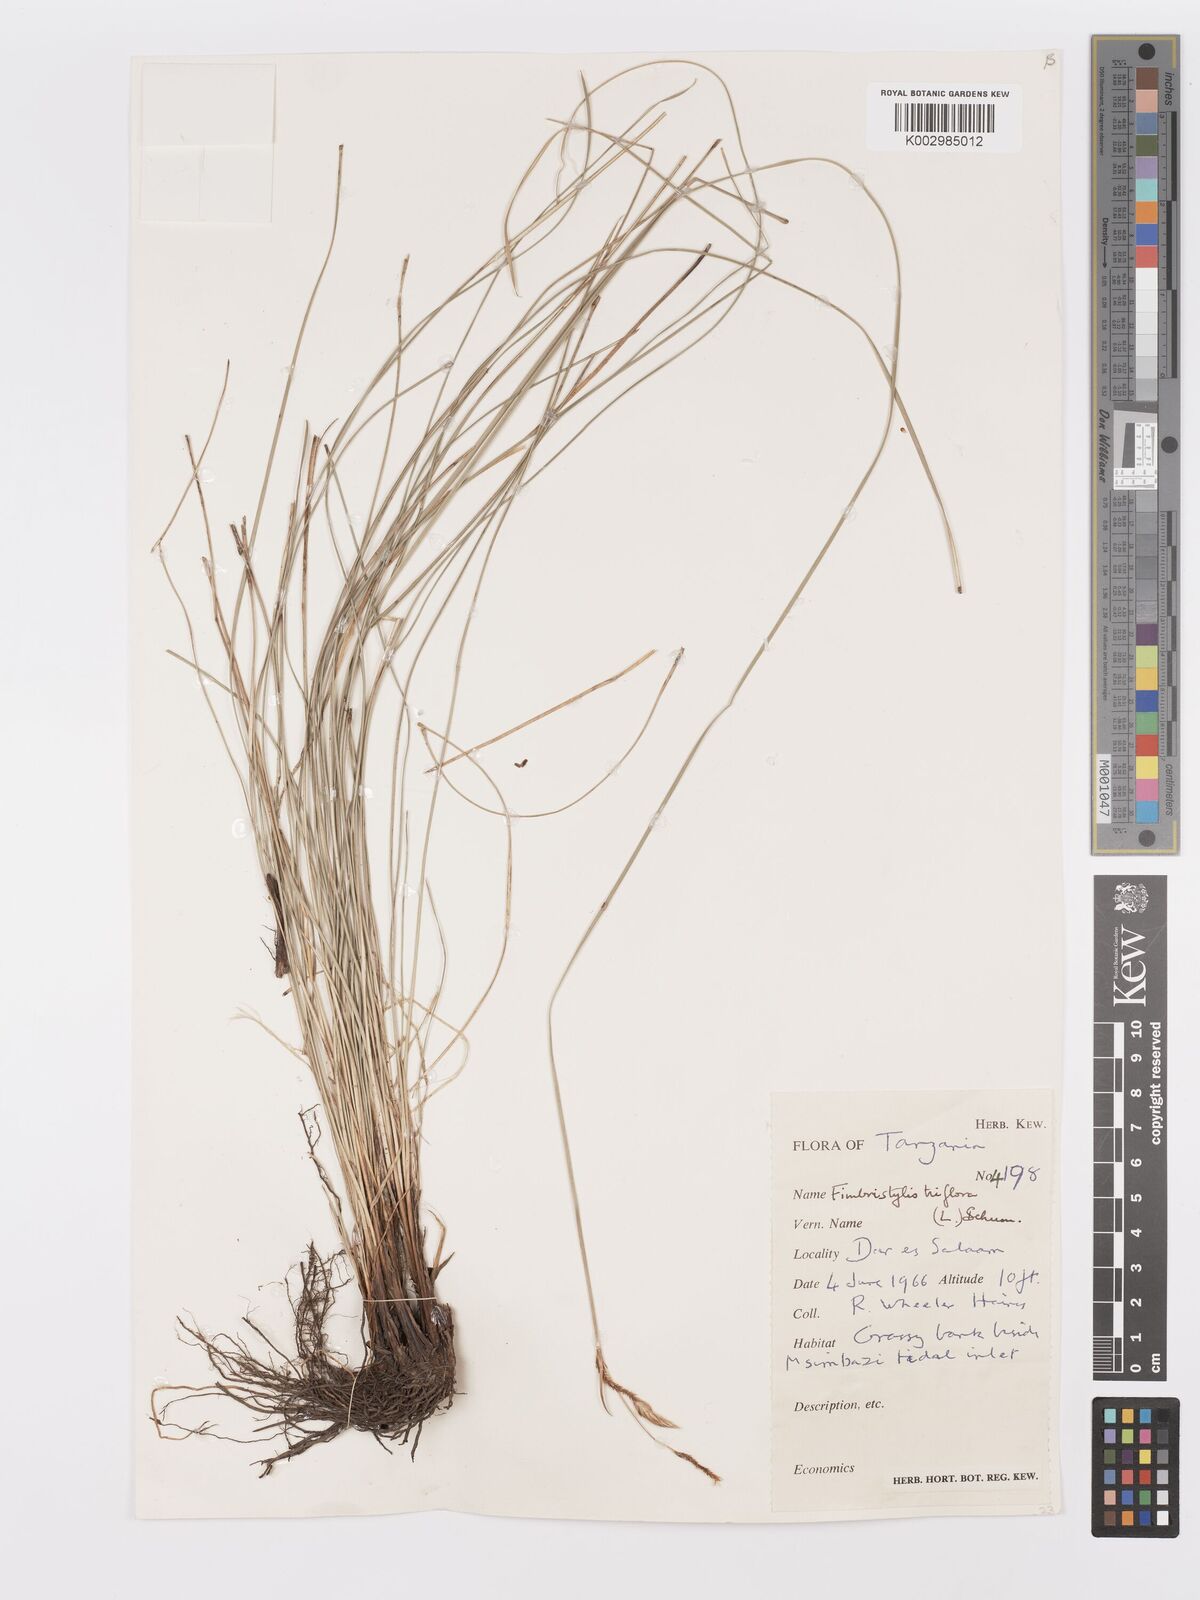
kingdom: Plantae
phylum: Tracheophyta
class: Liliopsida
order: Poales
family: Cyperaceae
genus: Abildgaardia
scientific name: Abildgaardia triflora
